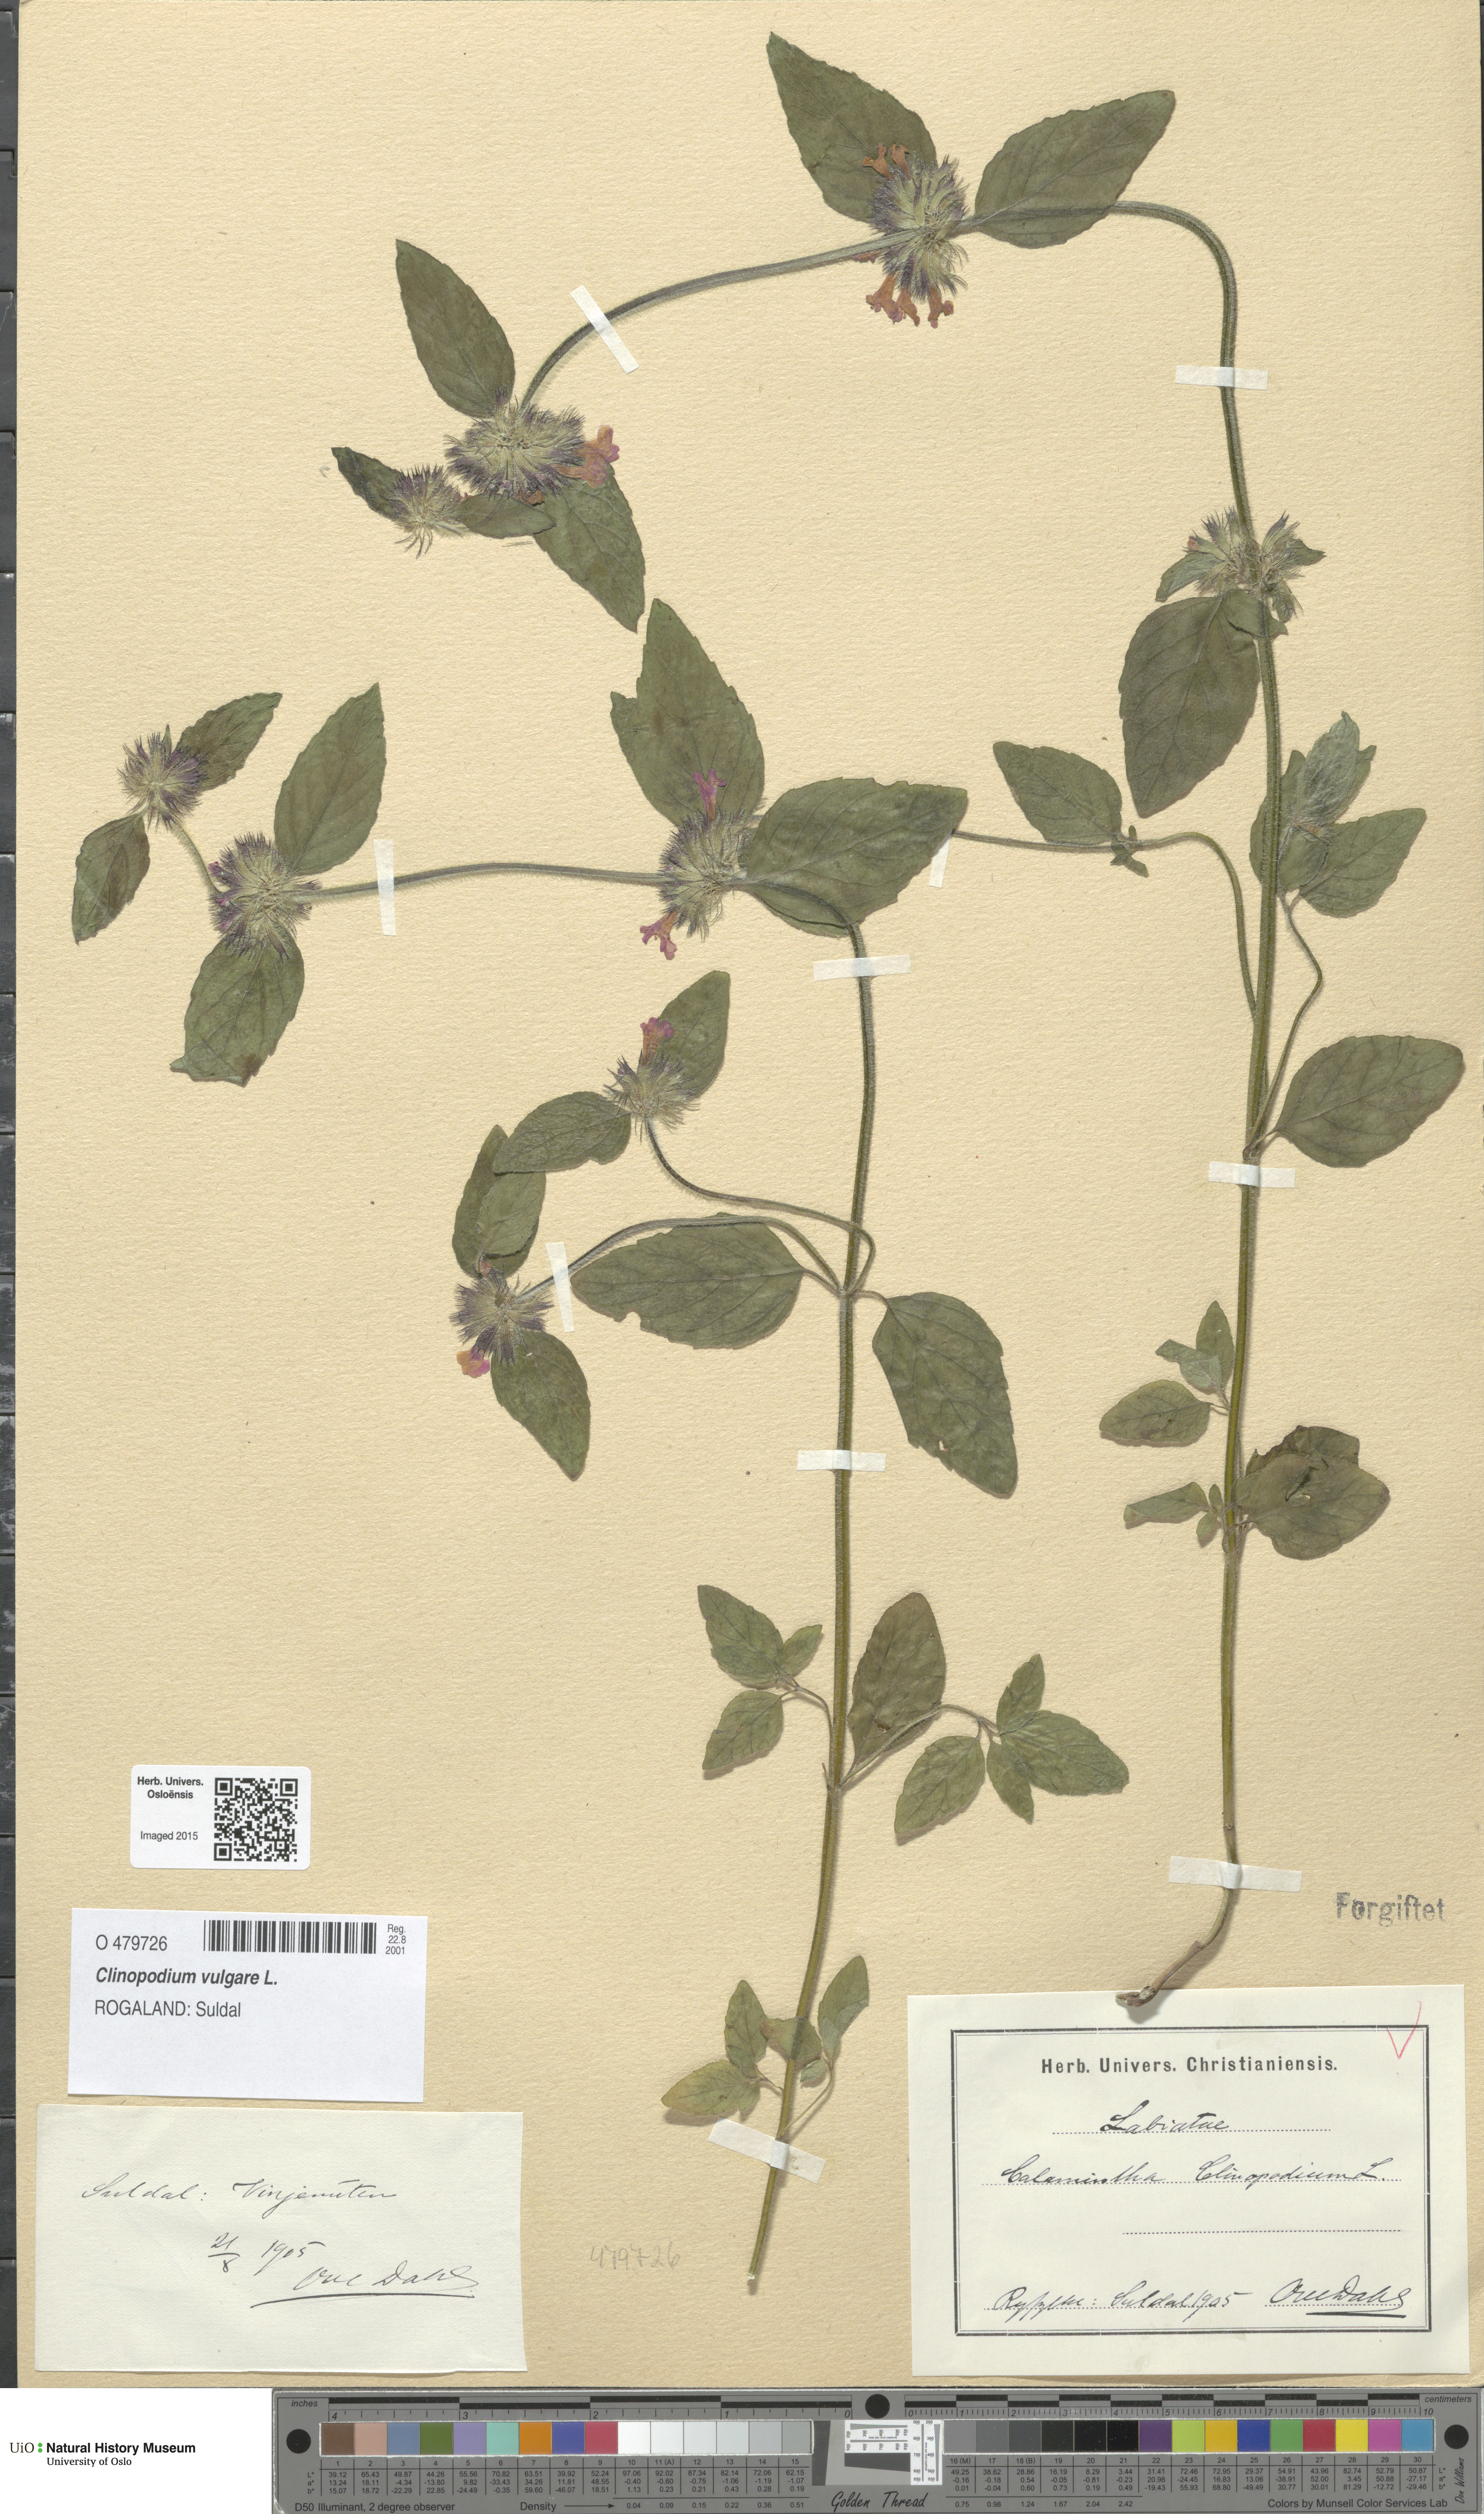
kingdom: Plantae
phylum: Tracheophyta
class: Magnoliopsida
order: Lamiales
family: Lamiaceae
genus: Clinopodium
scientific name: Clinopodium vulgare
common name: Wild basil
